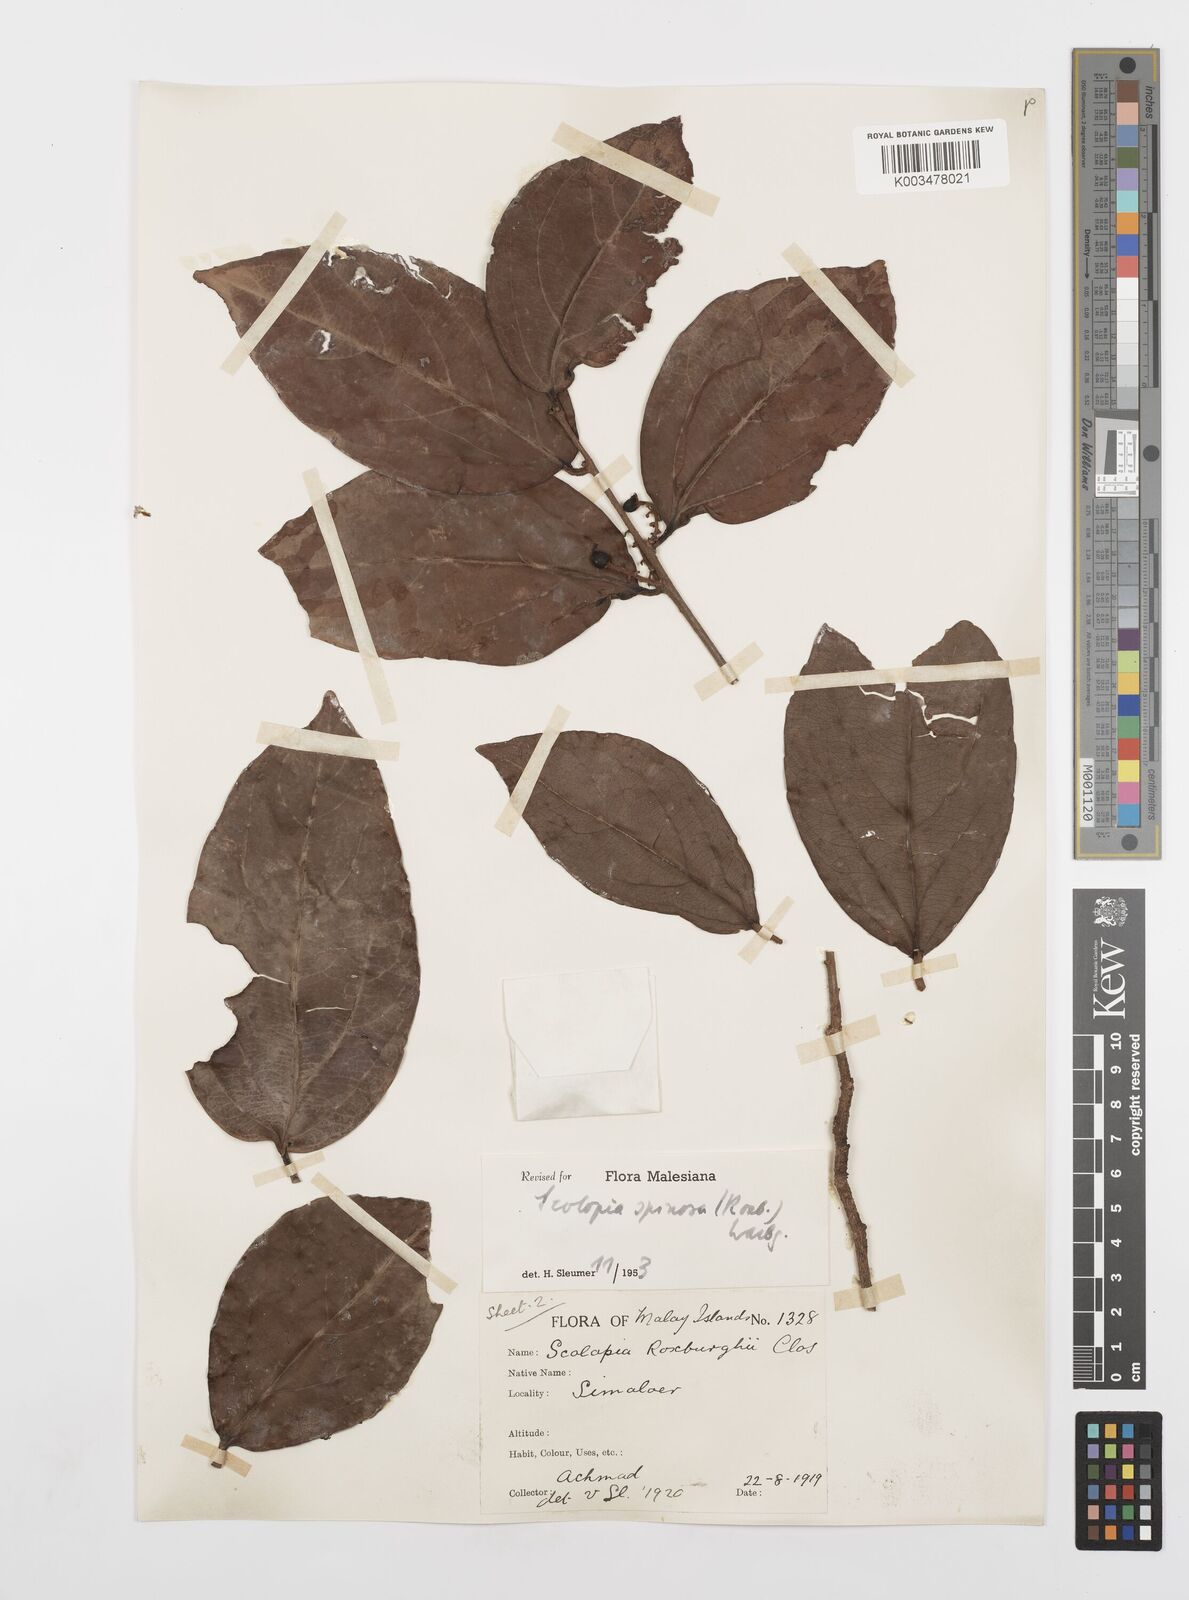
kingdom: Plantae
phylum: Tracheophyta
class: Magnoliopsida
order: Malpighiales
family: Salicaceae
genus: Scolopia
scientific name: Scolopia spinosa
